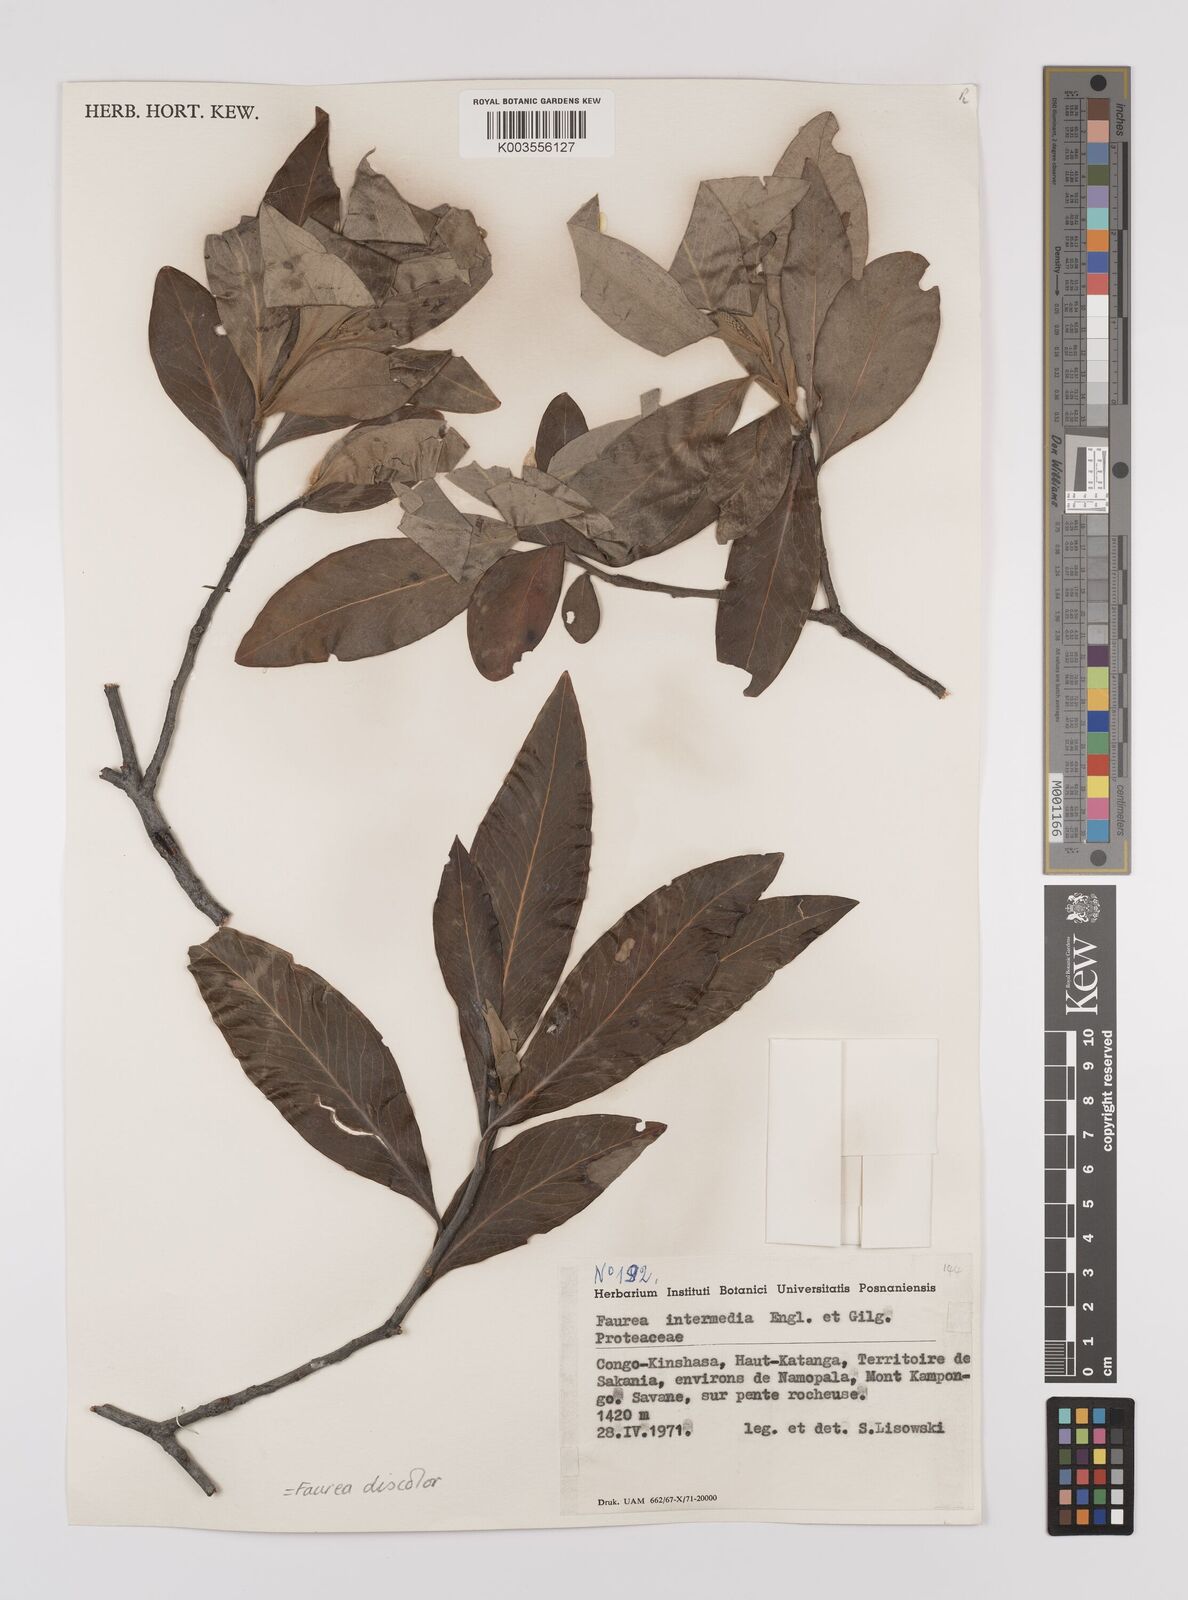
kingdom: Plantae
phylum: Tracheophyta
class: Magnoliopsida
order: Proteales
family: Proteaceae
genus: Faurea
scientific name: Faurea discolor
